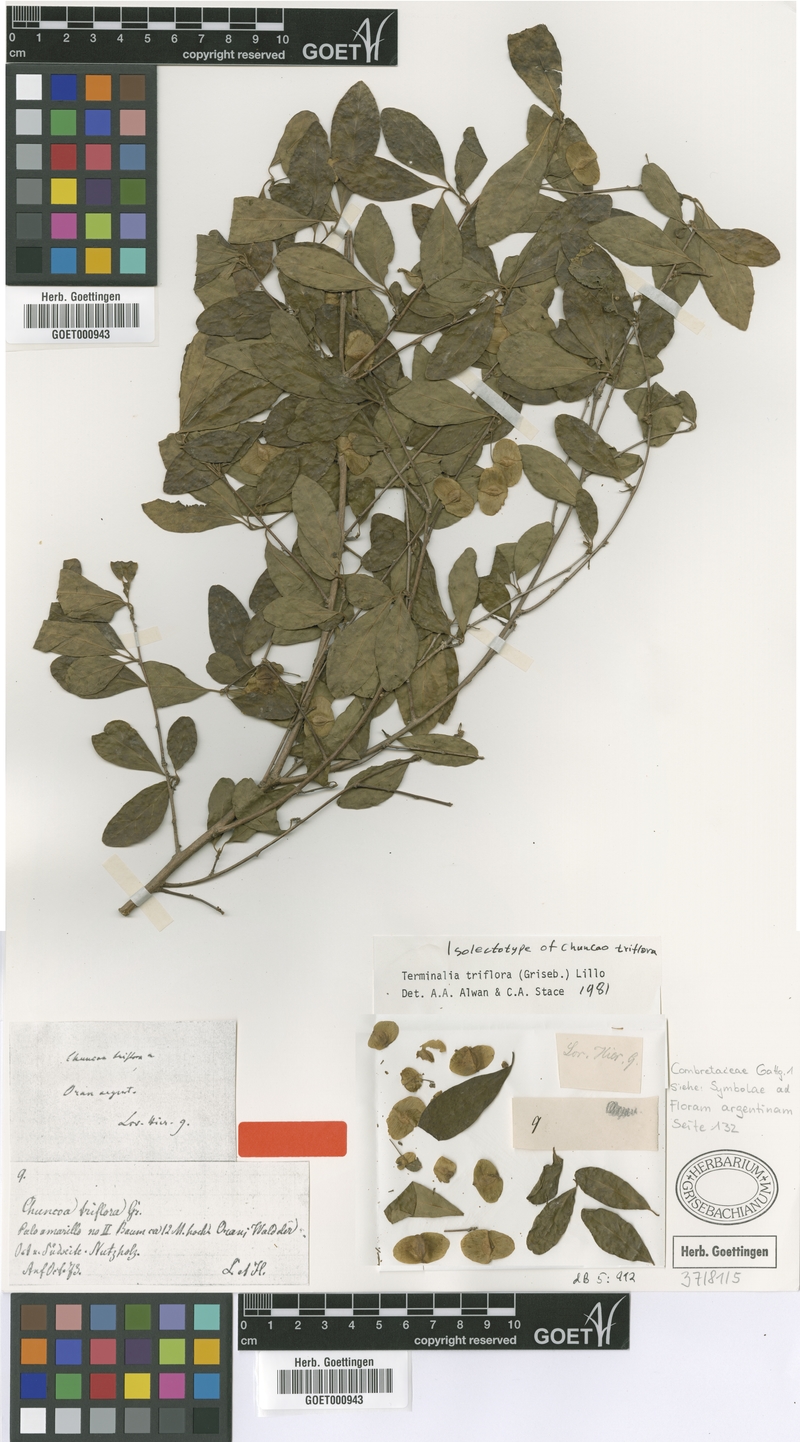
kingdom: Plantae
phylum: Tracheophyta
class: Magnoliopsida
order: Myrtales
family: Combretaceae
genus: Terminalia
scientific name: Terminalia triflora
